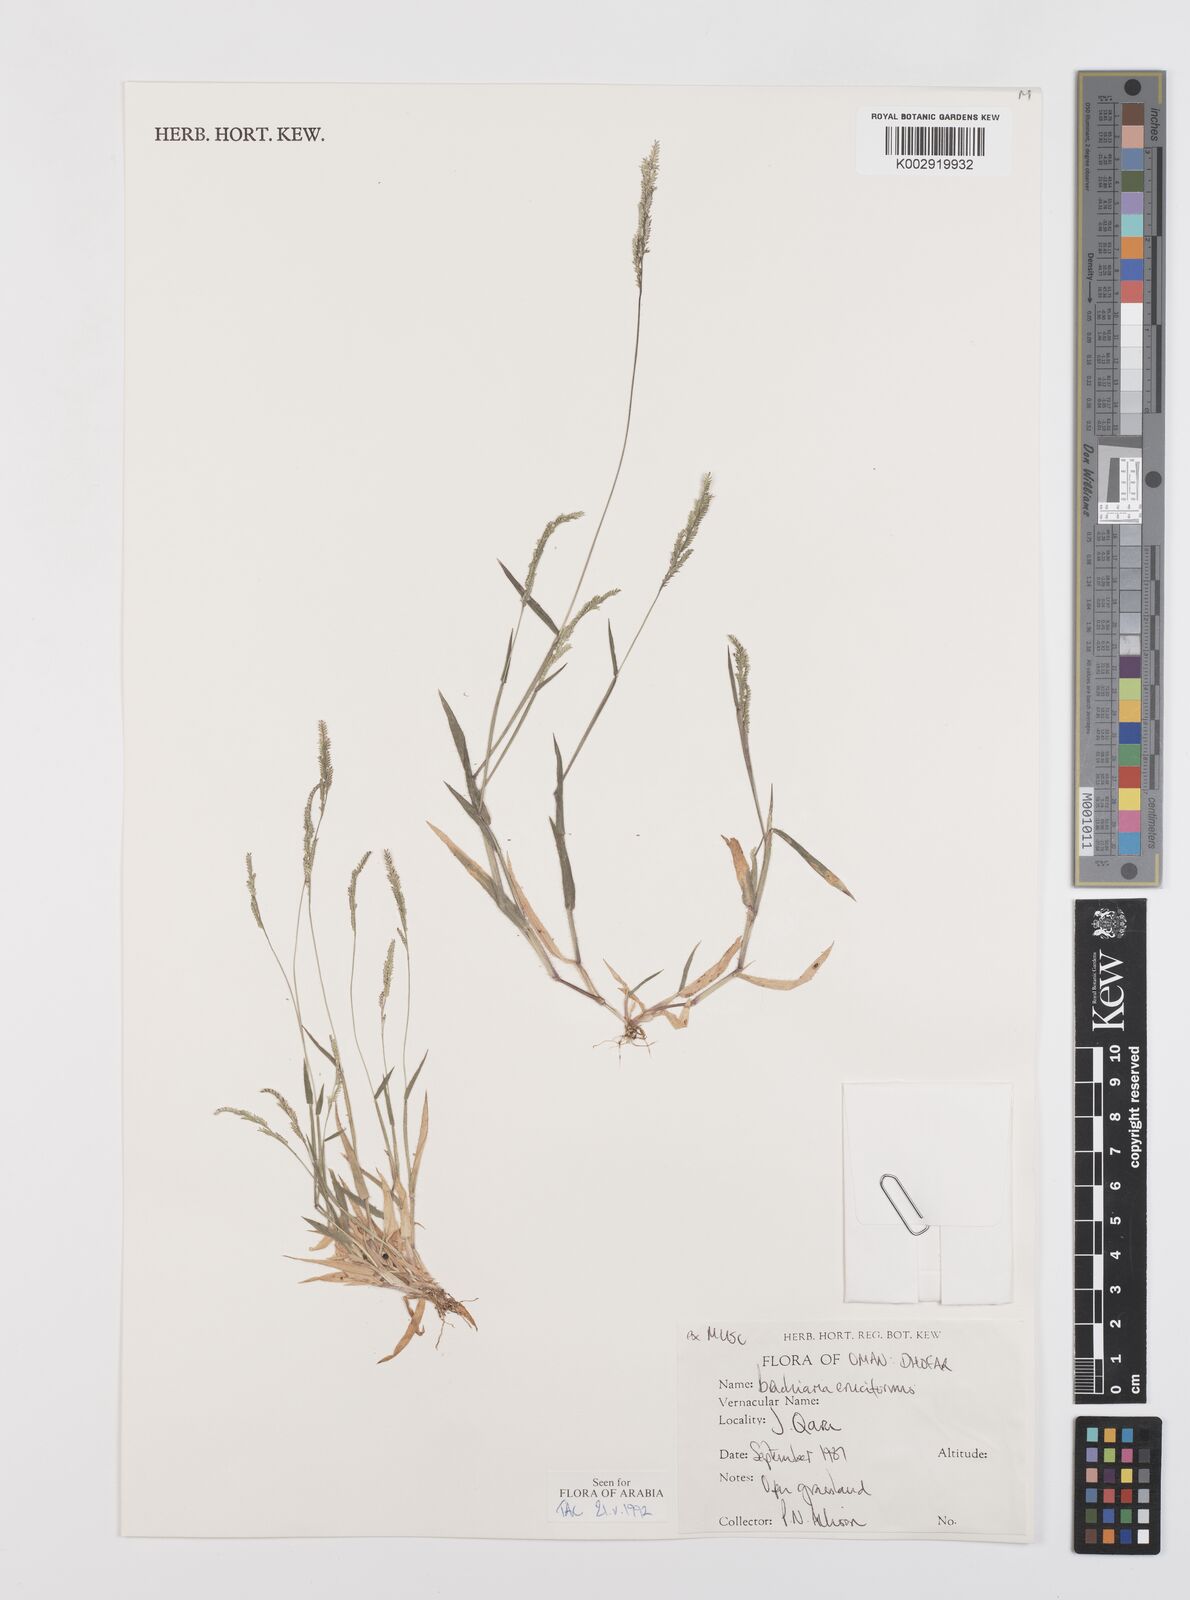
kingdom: Plantae
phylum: Tracheophyta
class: Liliopsida
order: Poales
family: Poaceae
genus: Moorochloa
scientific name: Moorochloa eruciformis
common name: Sweet signalgrass
